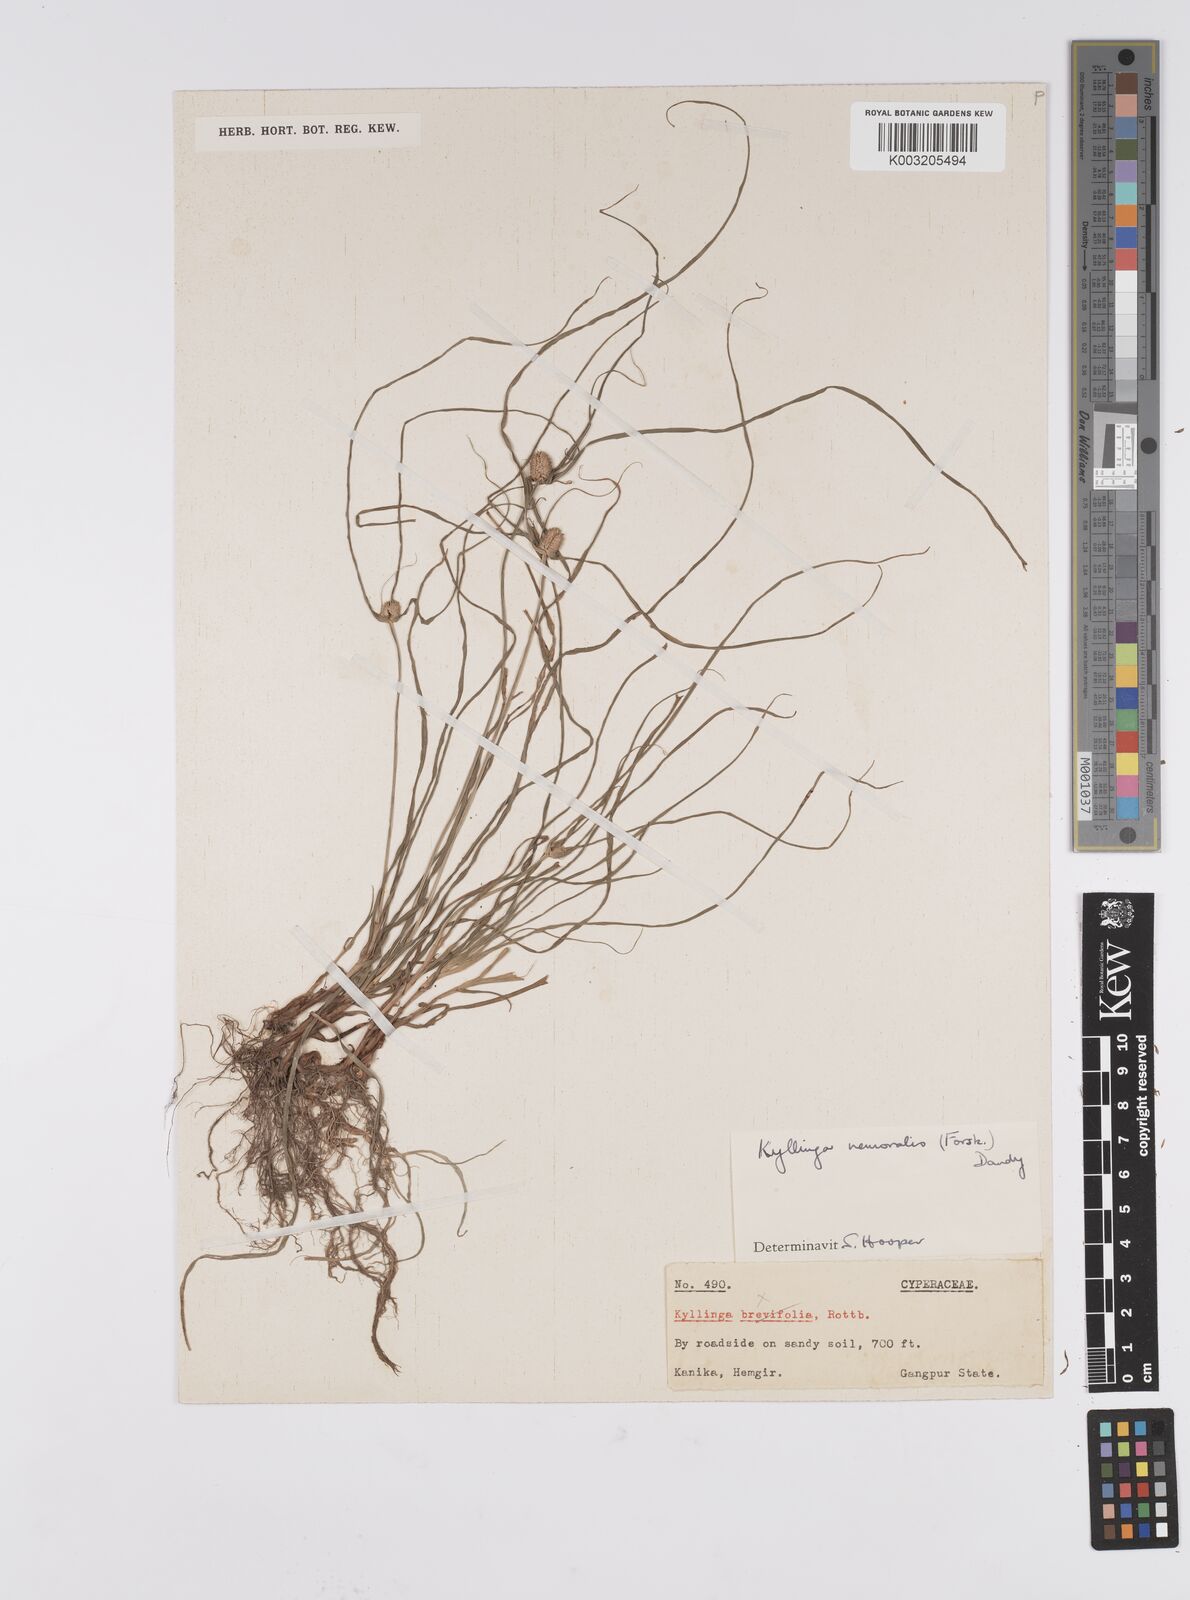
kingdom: Plantae
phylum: Tracheophyta
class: Liliopsida
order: Poales
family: Cyperaceae
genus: Cyperus
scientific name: Cyperus nemoralis
